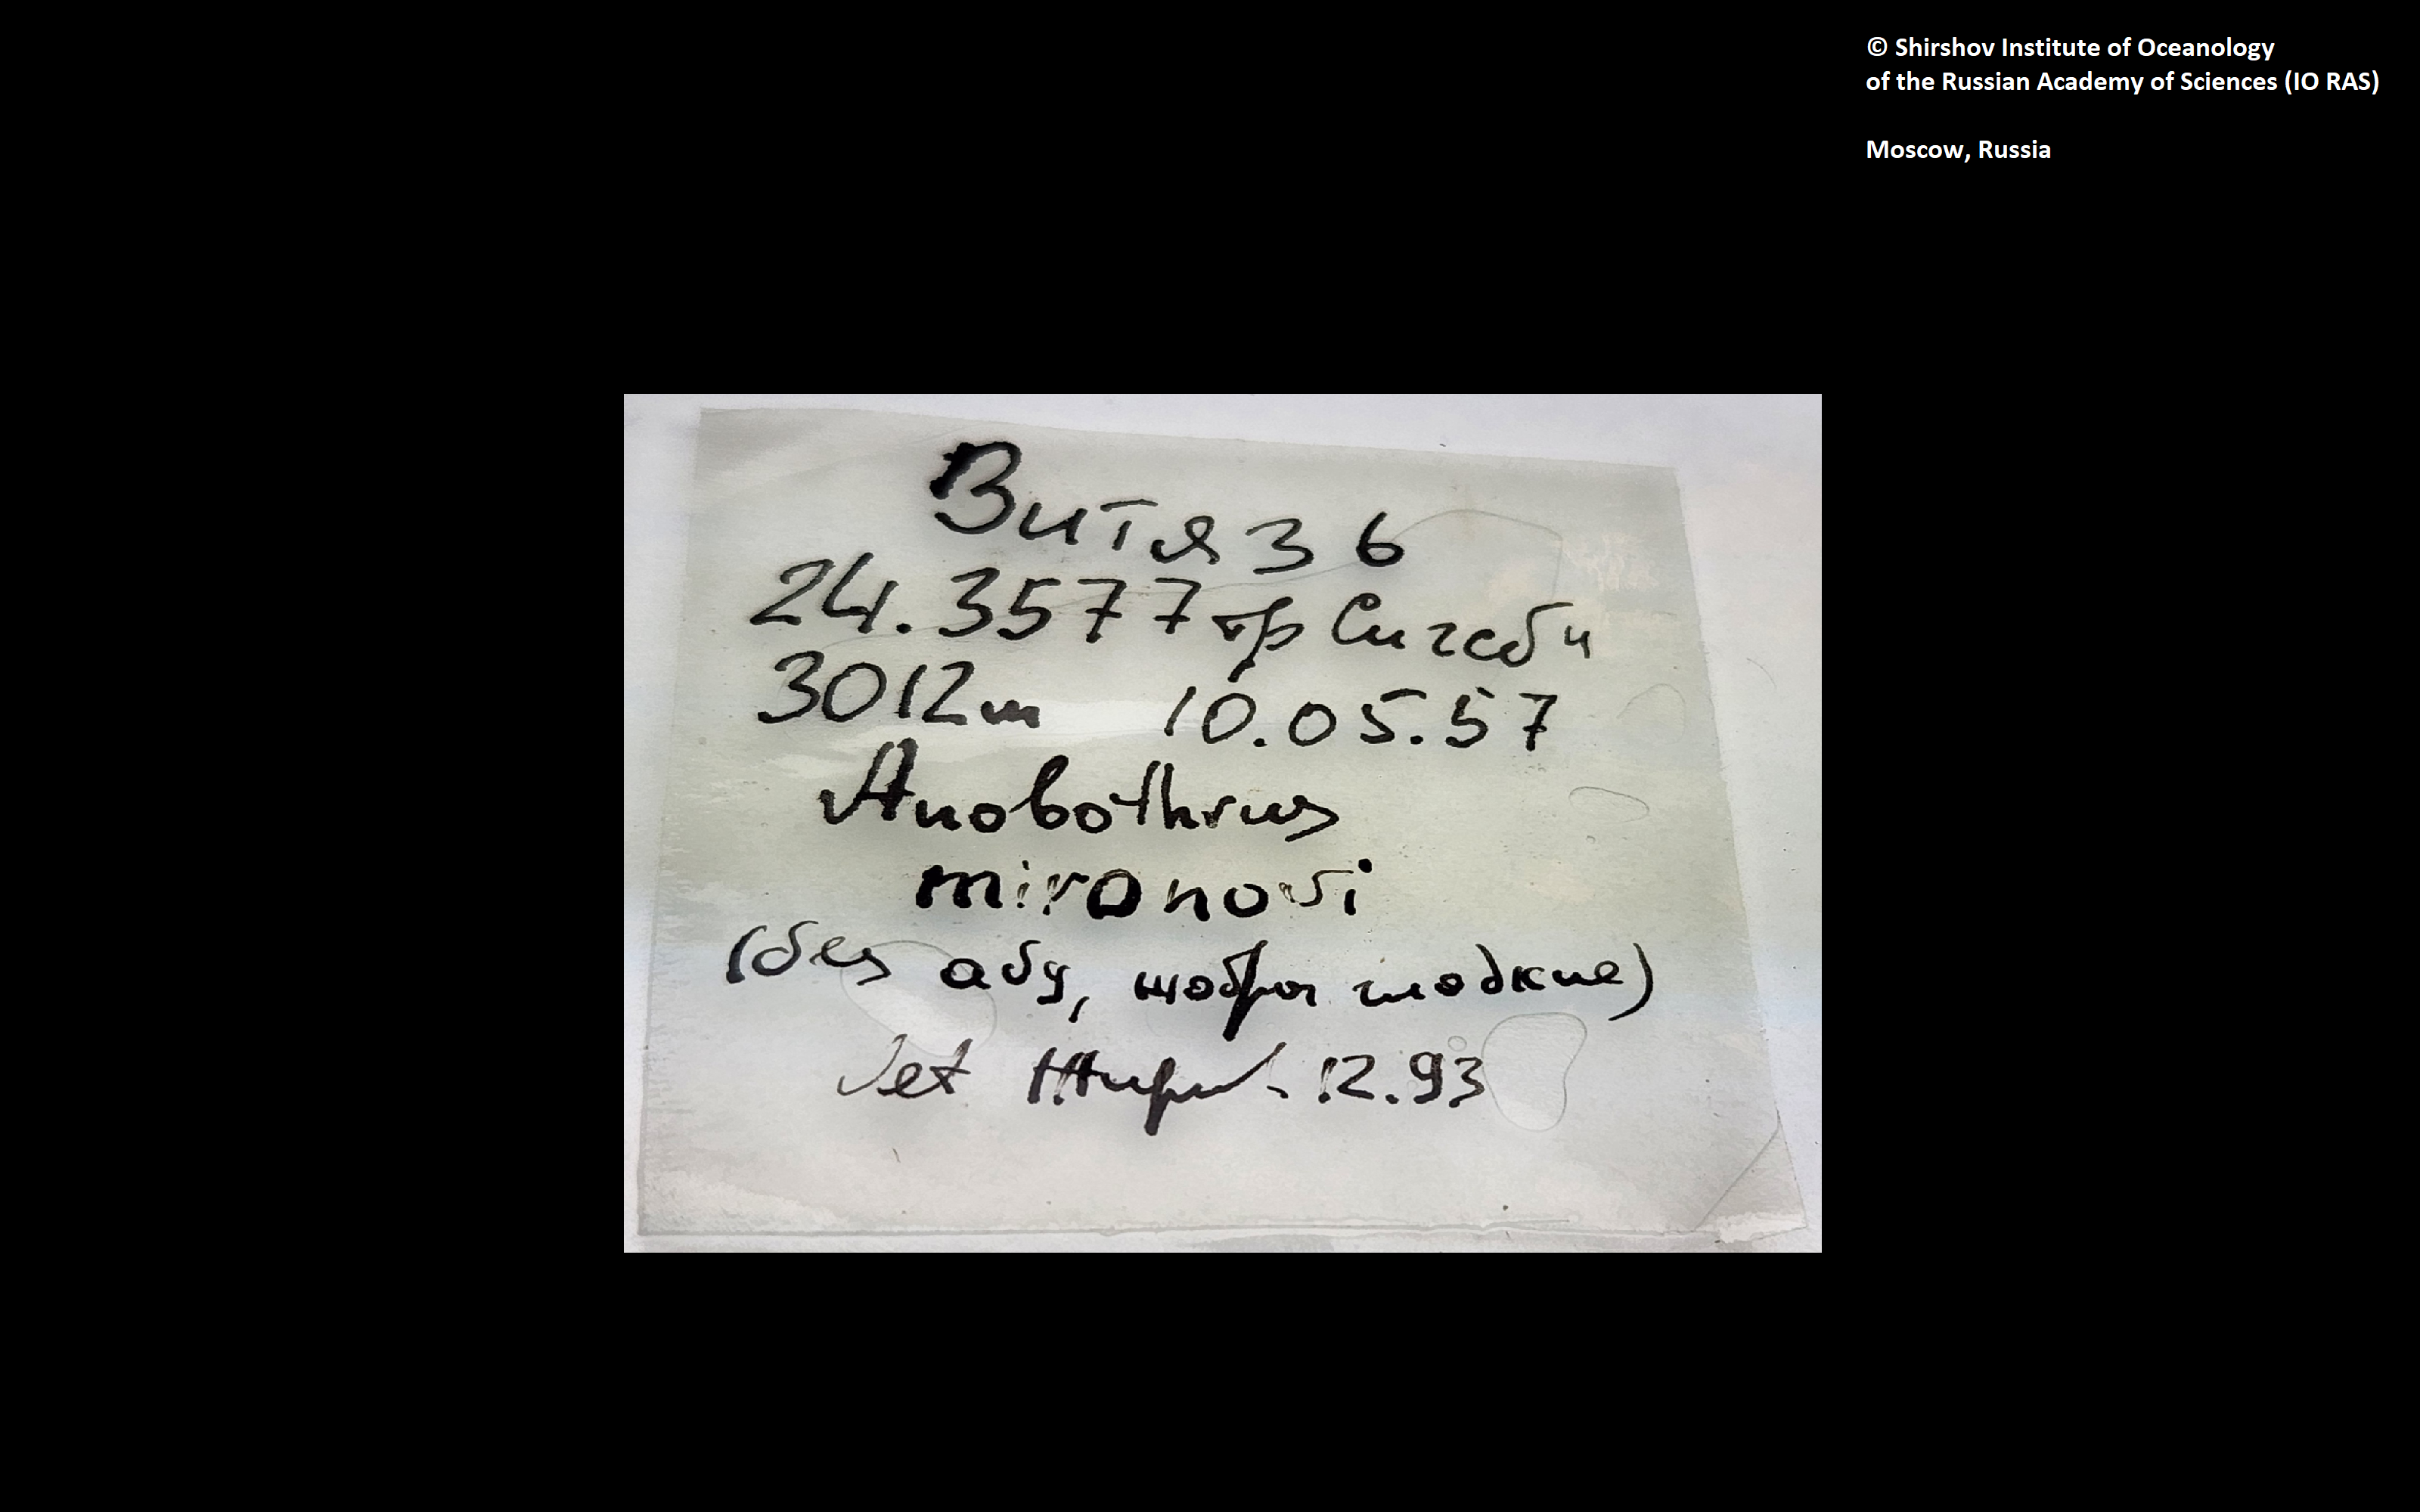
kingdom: Animalia
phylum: Annelida
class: Polychaeta
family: Ampharetidae
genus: Anobothrus
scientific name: Anobothrus mironovi
